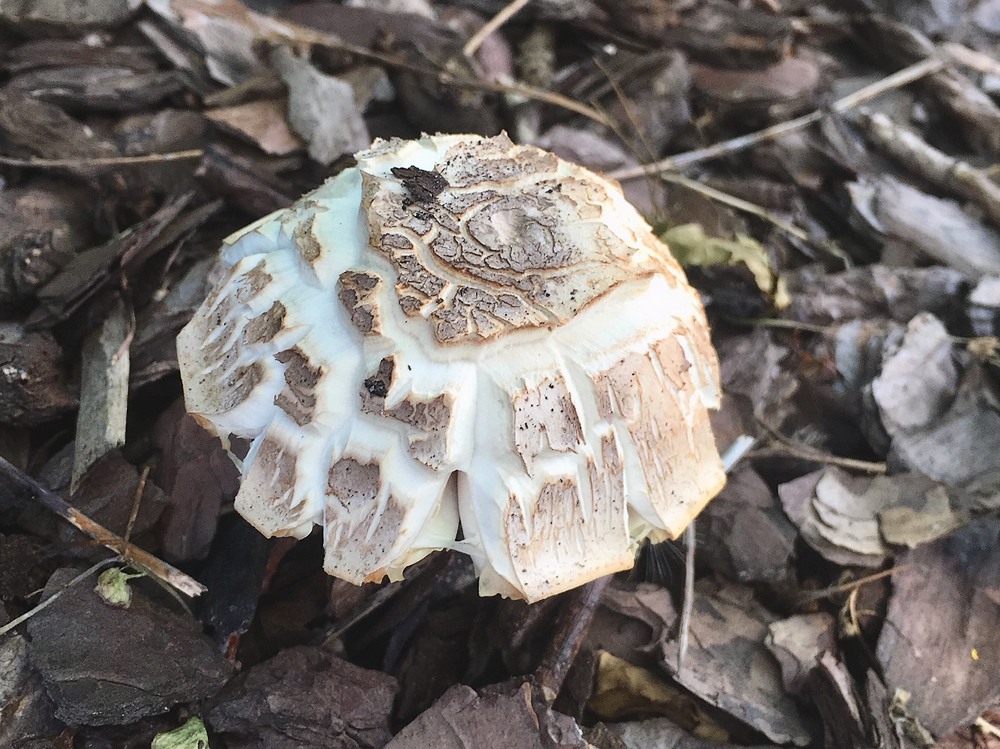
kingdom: Fungi
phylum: Basidiomycota
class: Agaricomycetes
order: Agaricales
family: Amanitaceae
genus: Amanita
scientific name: Amanita rubescens
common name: rødmende fluesvamp
